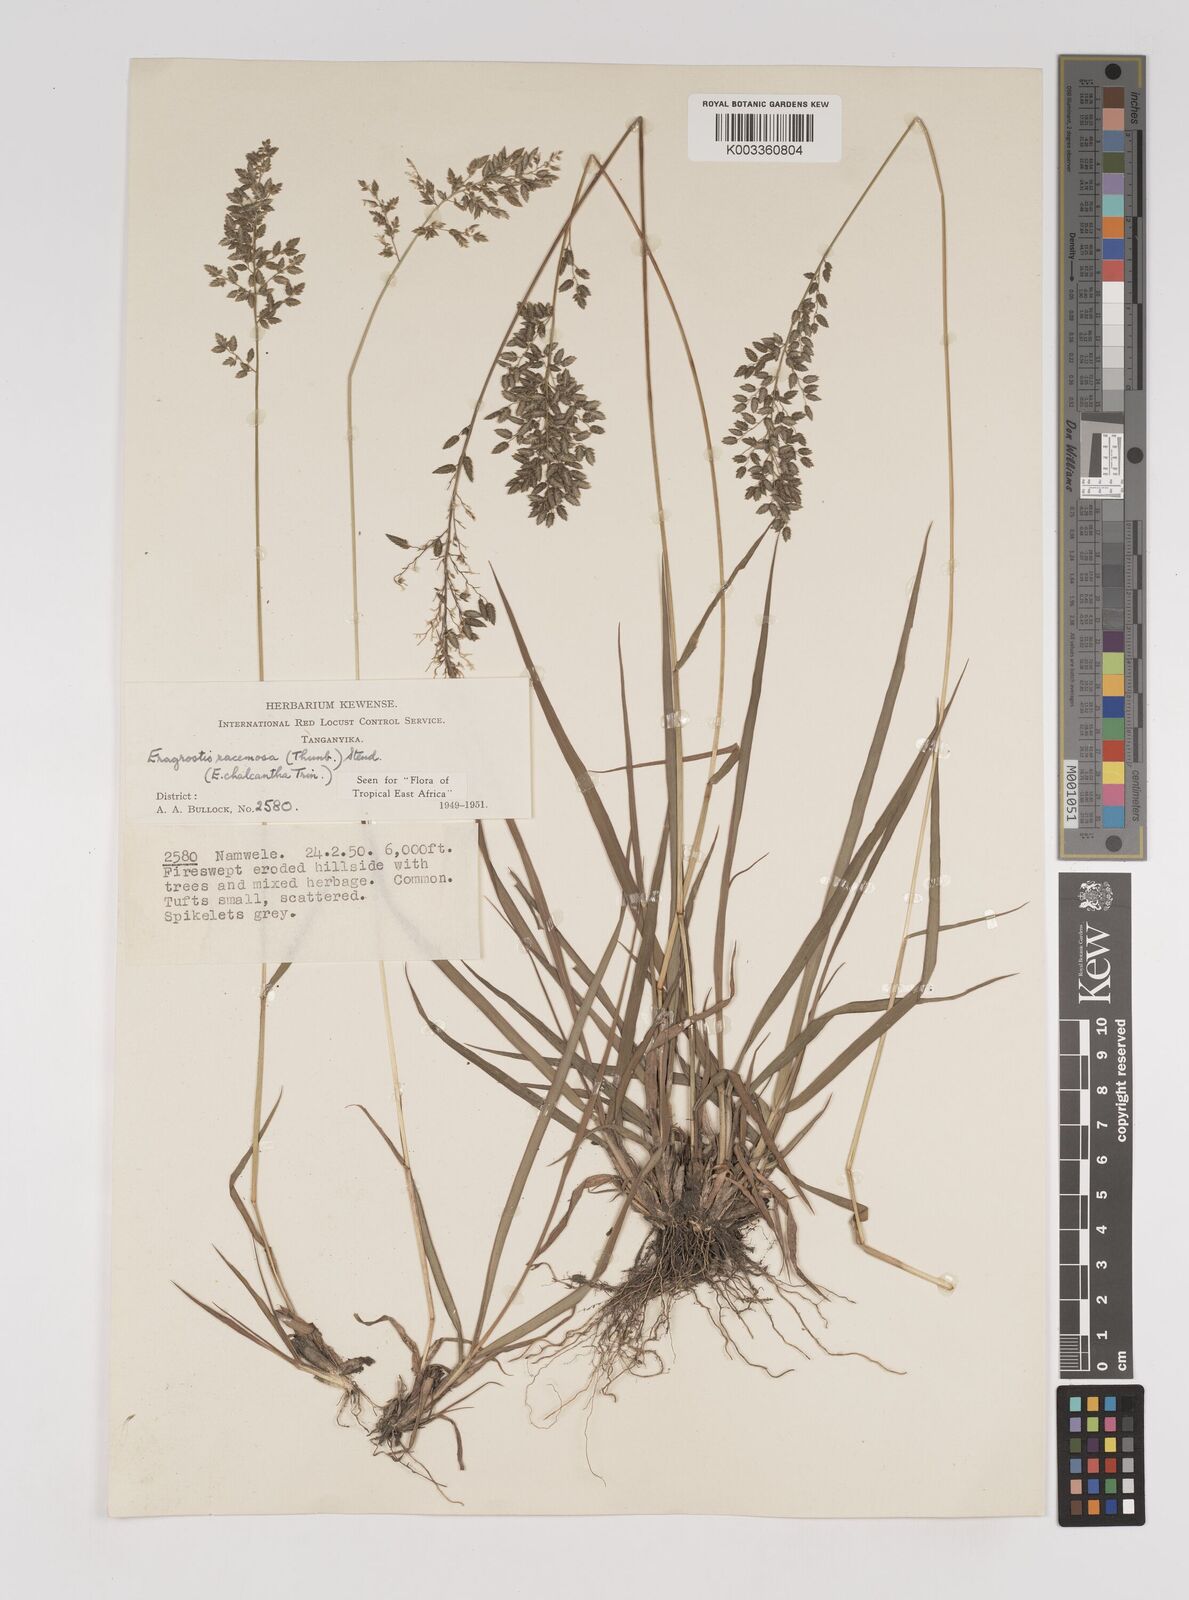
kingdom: Plantae
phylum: Tracheophyta
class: Liliopsida
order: Poales
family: Poaceae
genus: Eragrostis
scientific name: Eragrostis racemosa
